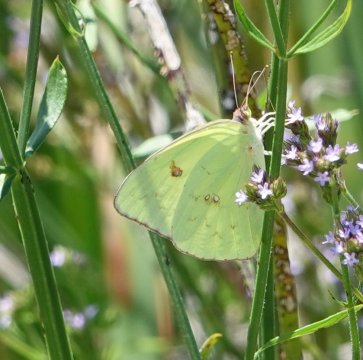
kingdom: Animalia
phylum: Arthropoda
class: Insecta
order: Lepidoptera
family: Pieridae
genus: Phoebis
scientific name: Phoebis sennae
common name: Cloudless Sulphur
